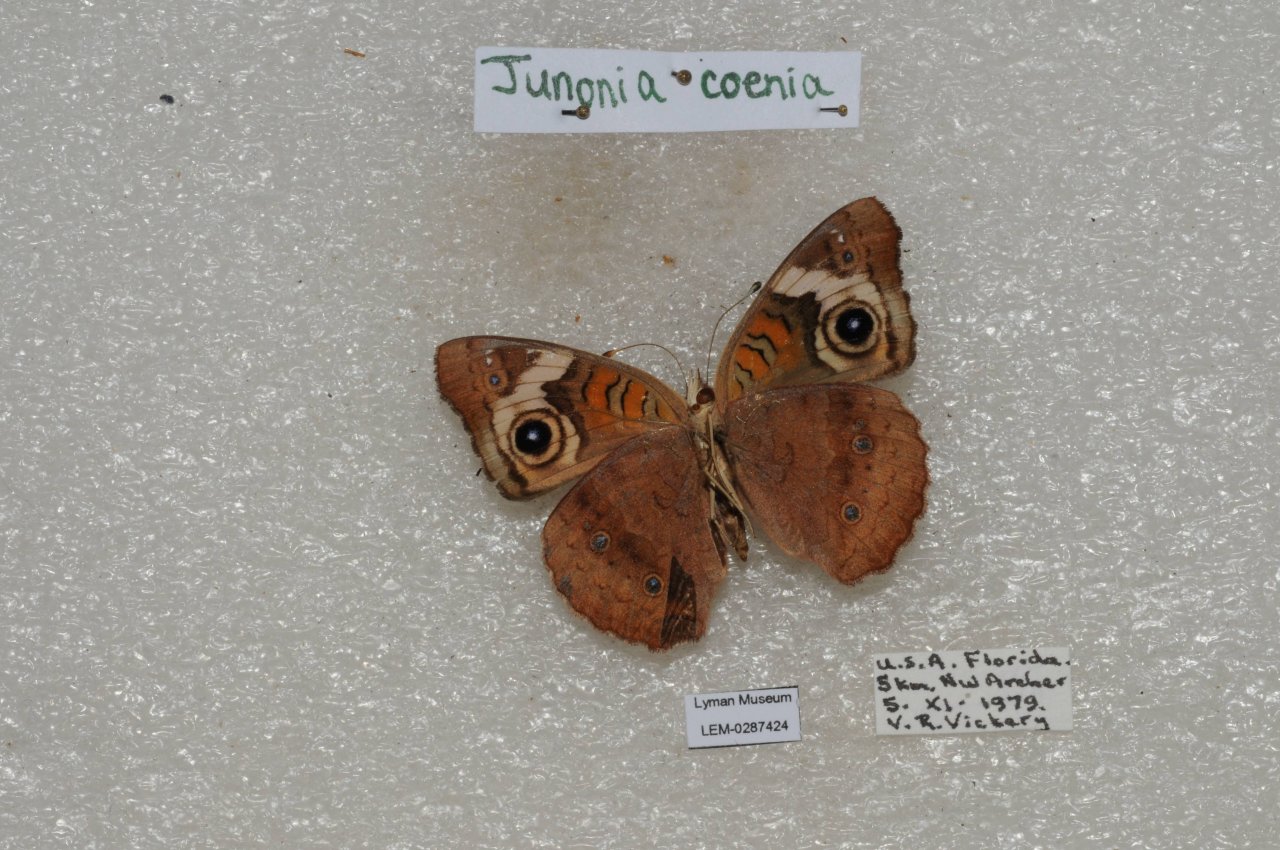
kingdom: Animalia
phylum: Arthropoda
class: Insecta
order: Lepidoptera
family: Nymphalidae
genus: Junonia
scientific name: Junonia coenia
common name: Common Buckeye
